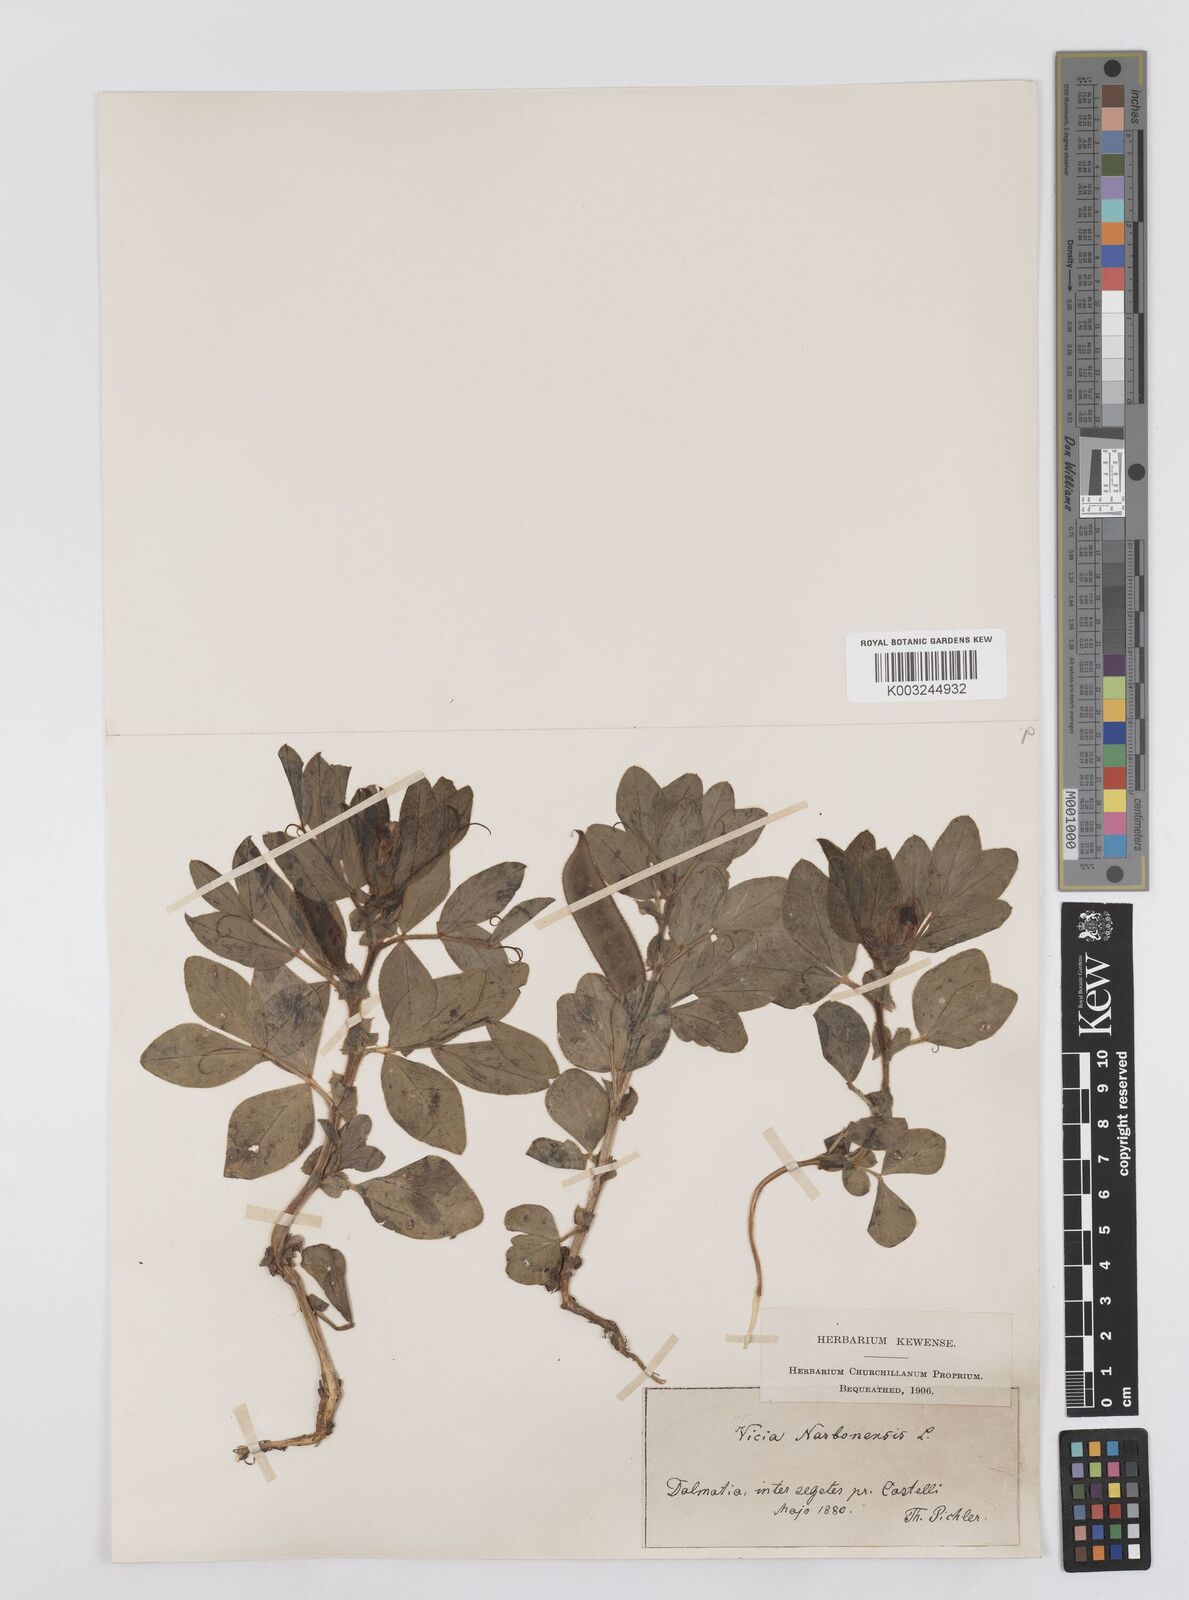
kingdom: Plantae
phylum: Tracheophyta
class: Magnoliopsida
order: Fabales
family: Fabaceae
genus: Vicia
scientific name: Vicia narbonensis
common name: Narbonne vetch
